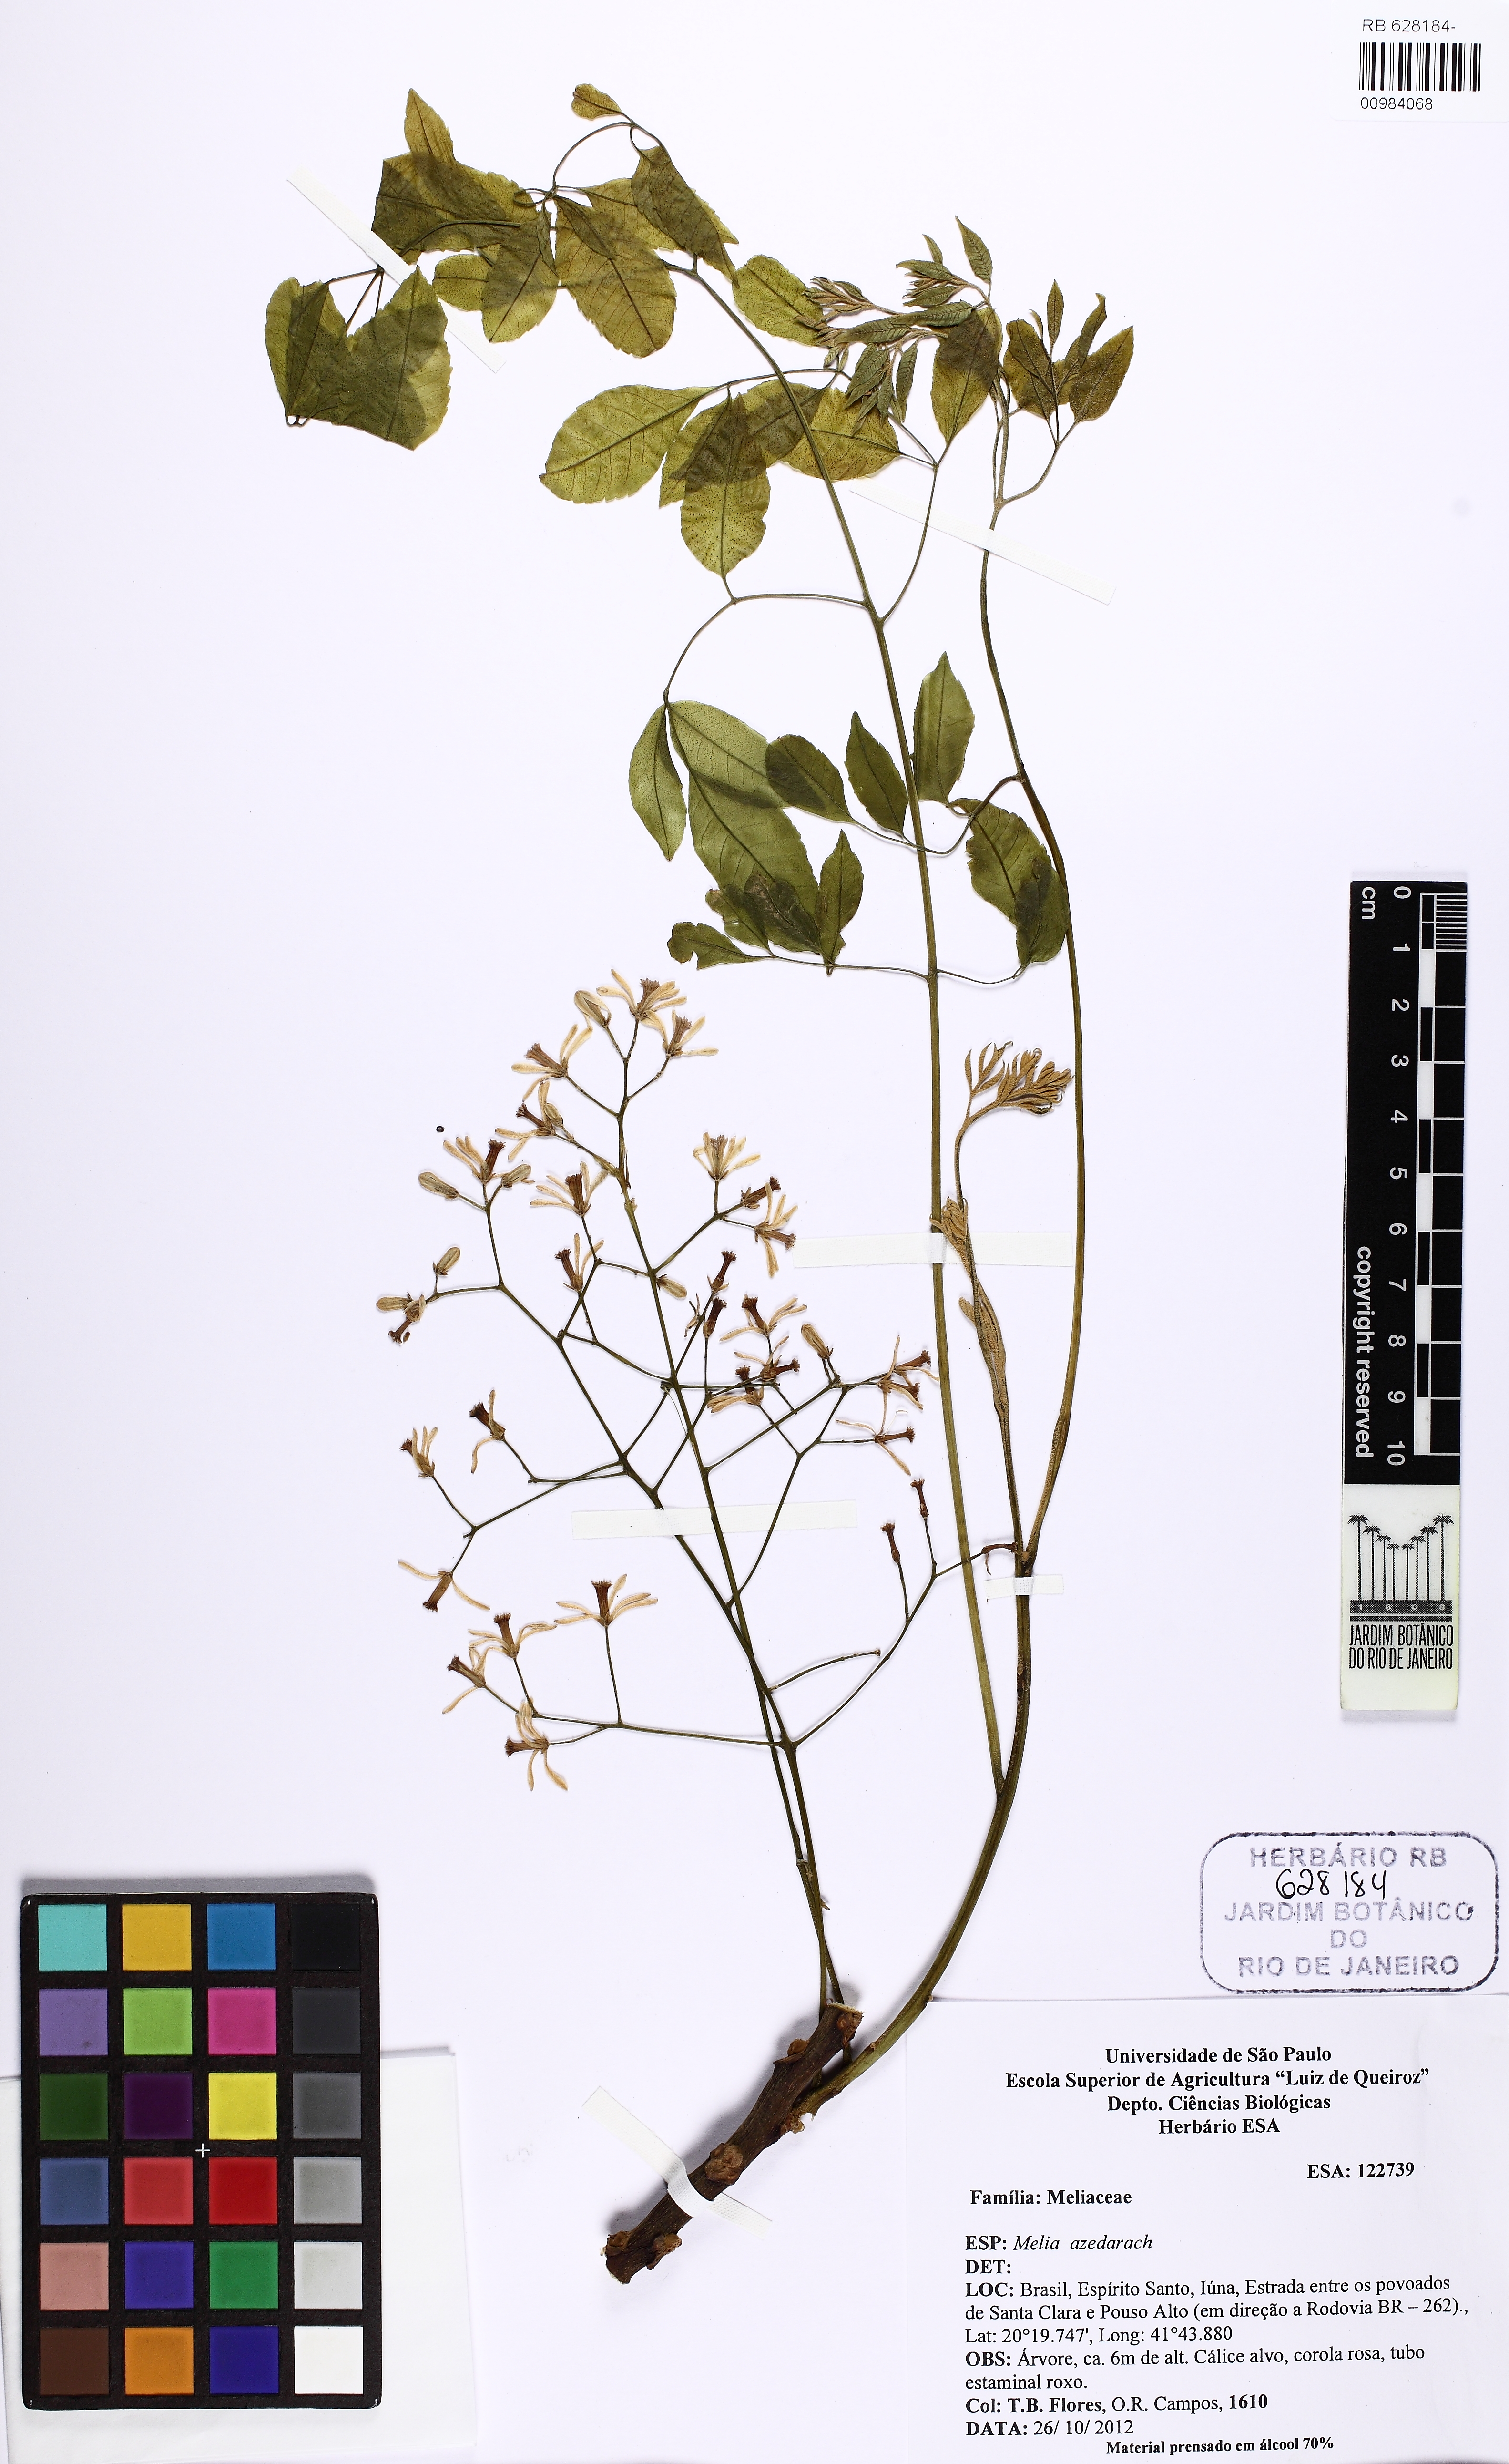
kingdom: Plantae
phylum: Tracheophyta
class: Magnoliopsida
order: Sapindales
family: Meliaceae
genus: Melia
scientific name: Melia azedarach
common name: Chinaberrytree
